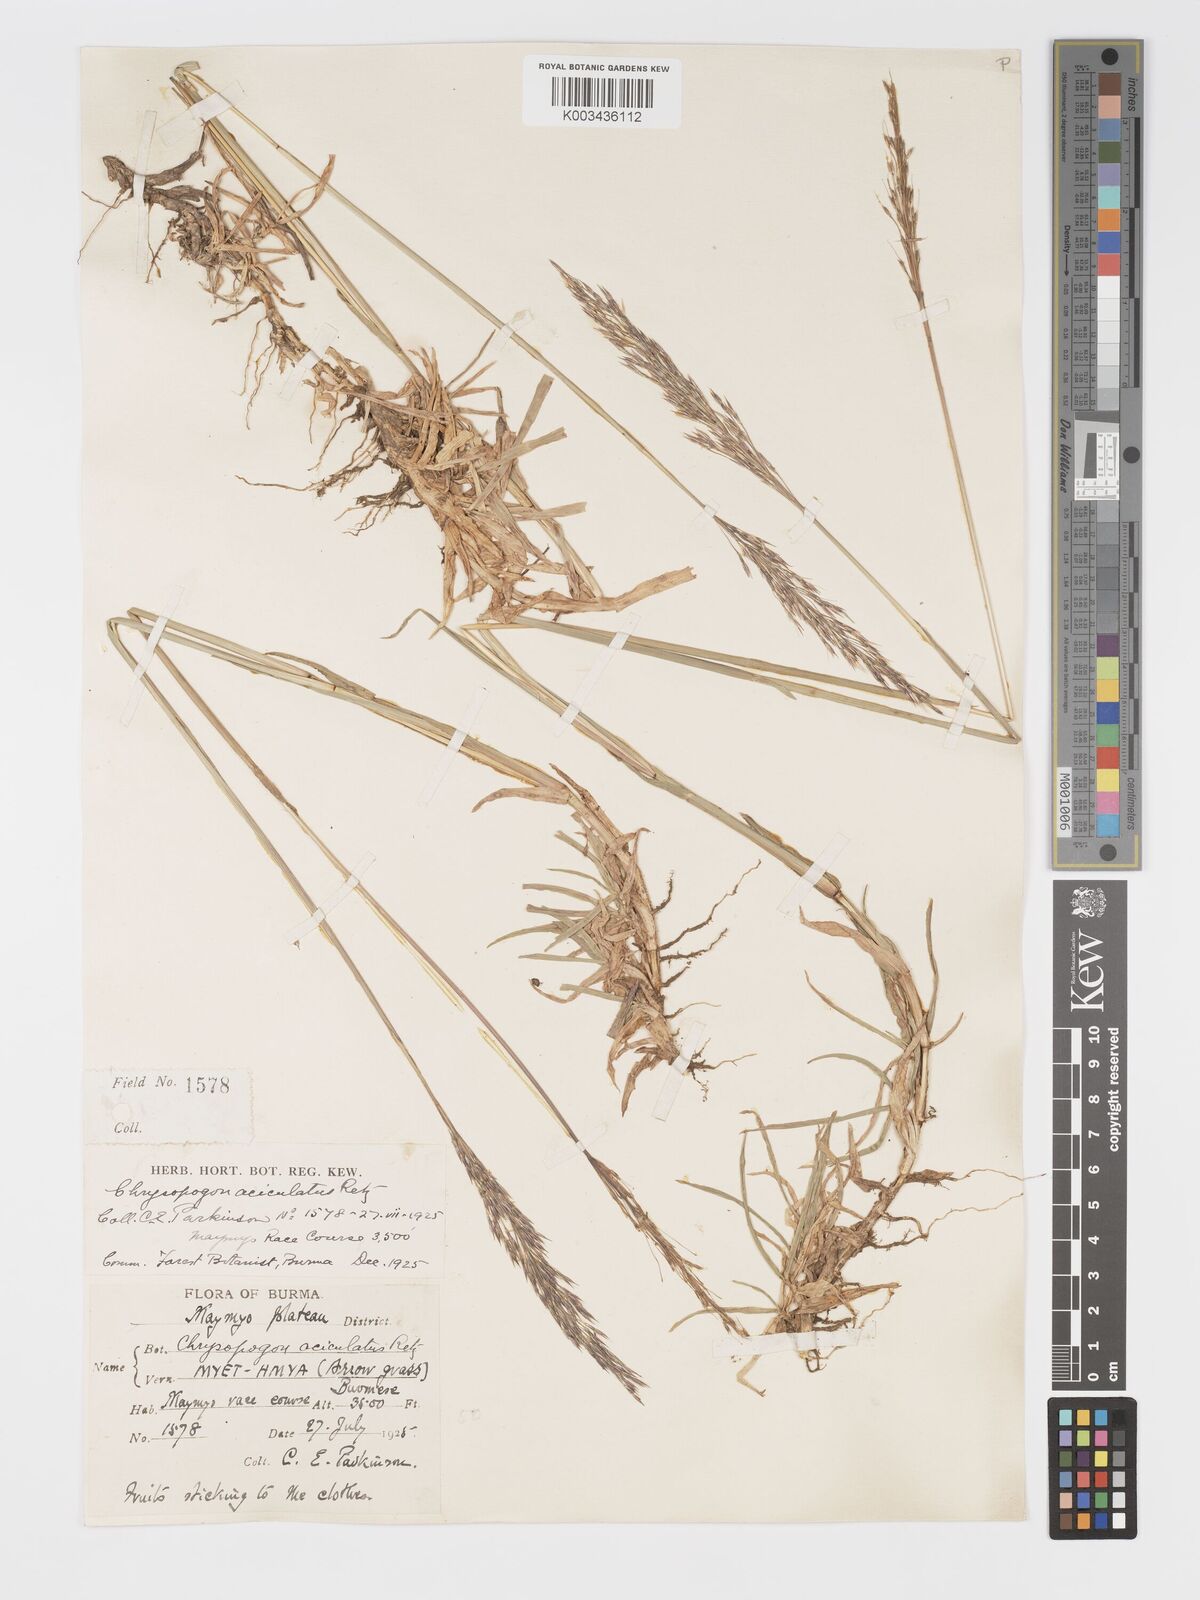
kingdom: Plantae
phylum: Tracheophyta
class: Liliopsida
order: Poales
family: Poaceae
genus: Chrysopogon
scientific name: Chrysopogon aciculatus
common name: Pilipiliula
